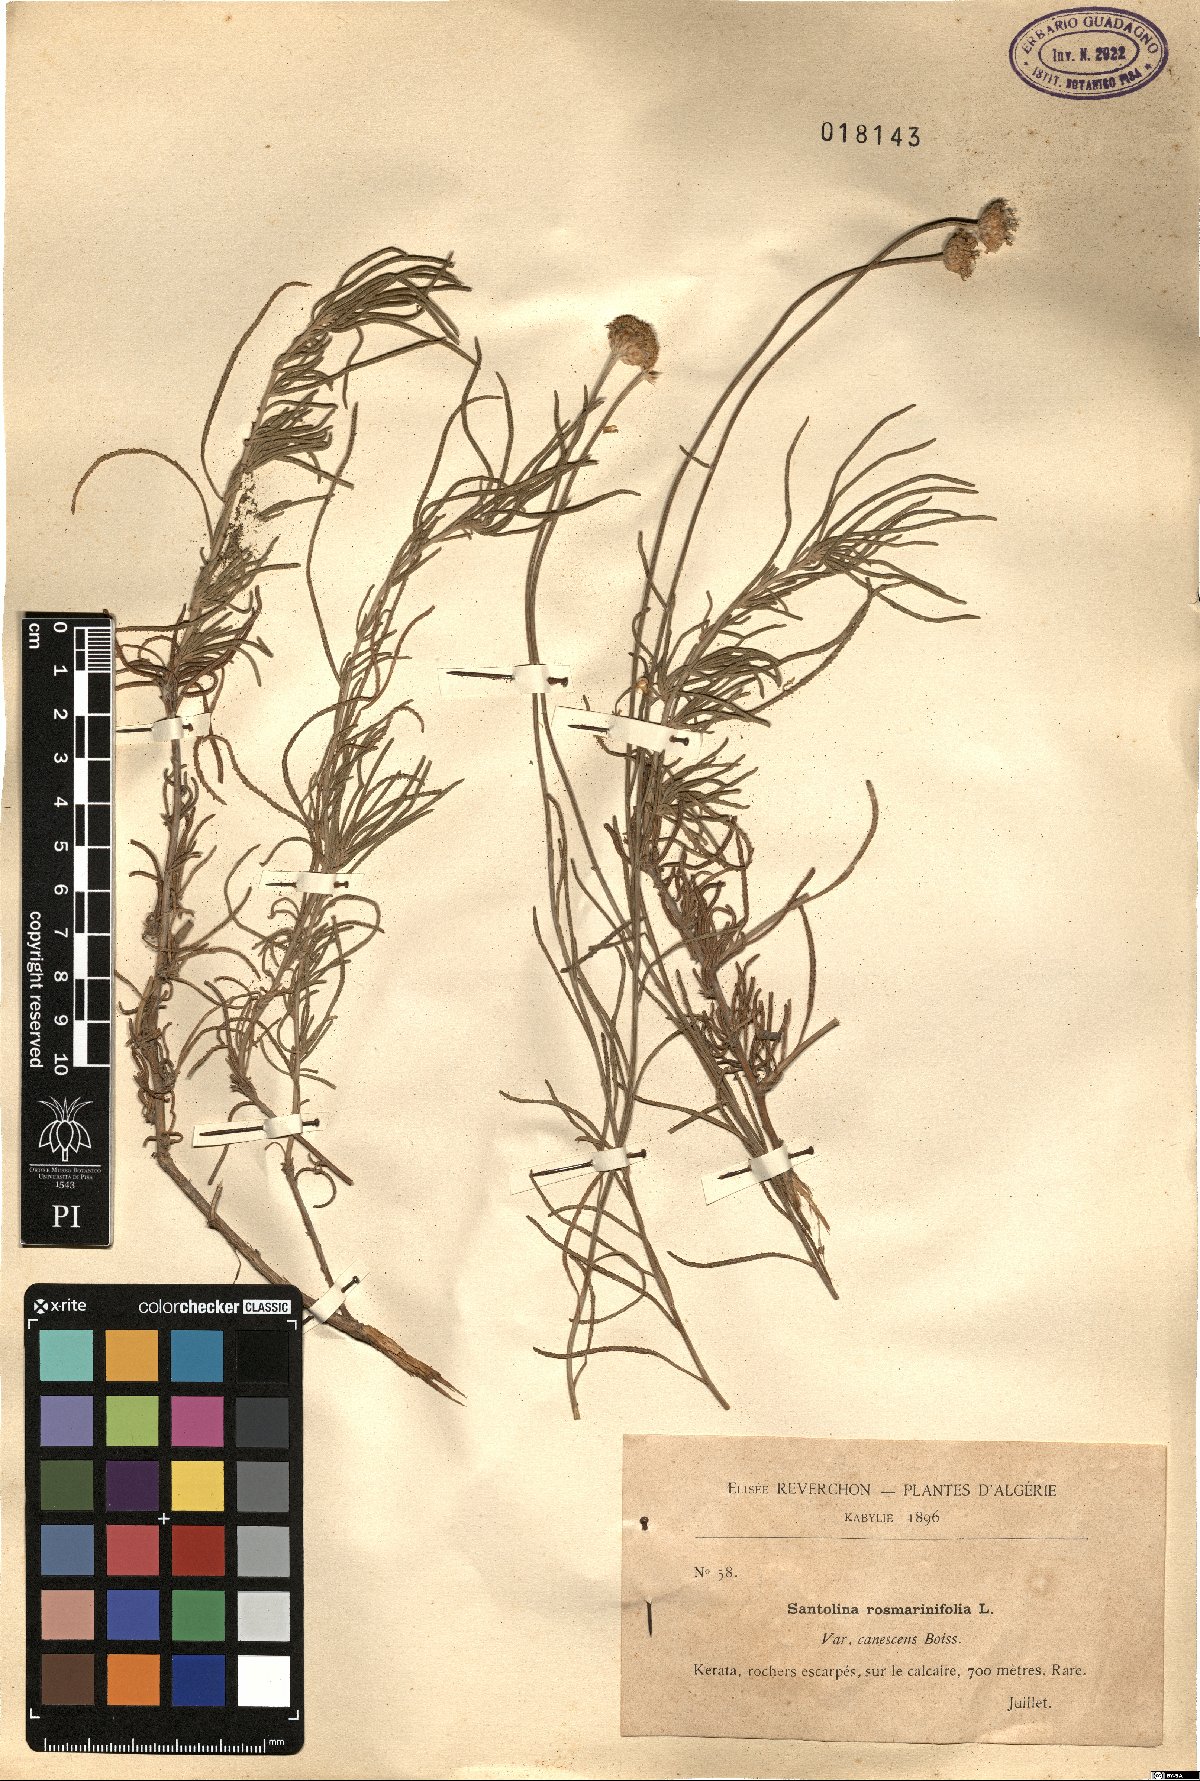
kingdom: Plantae
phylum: Tracheophyta
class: Magnoliopsida
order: Asterales
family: Asteraceae
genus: Santolina
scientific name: Santolina canescens
